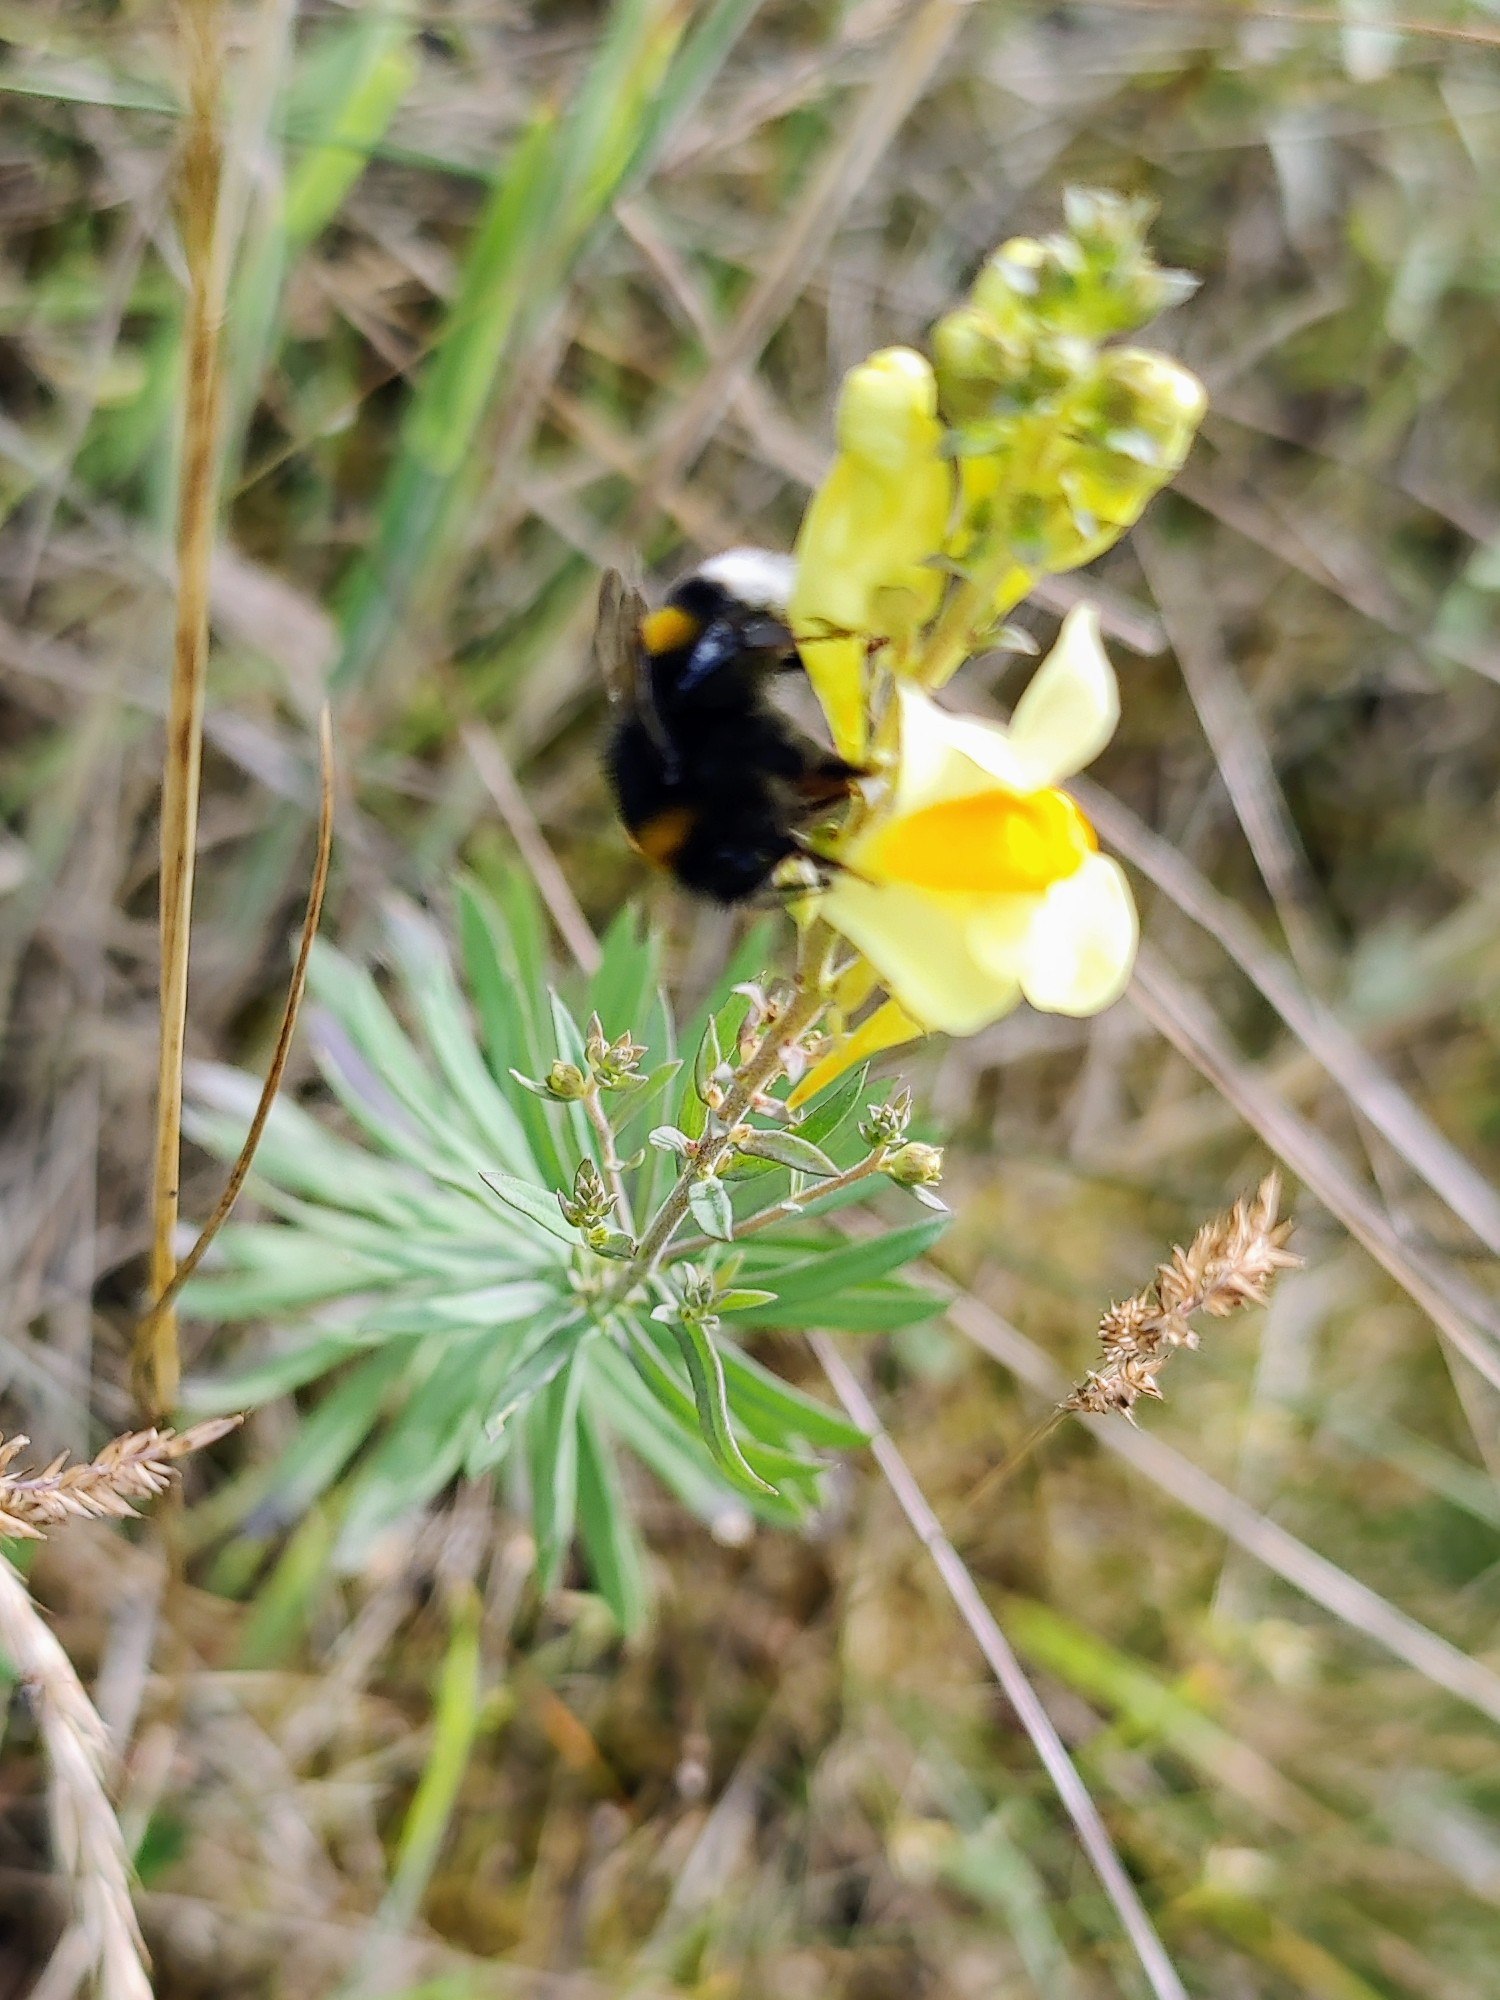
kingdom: Plantae
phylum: Tracheophyta
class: Magnoliopsida
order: Lamiales
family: Plantaginaceae
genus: Linaria
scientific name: Linaria vulgaris
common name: Almindelig torskemund
